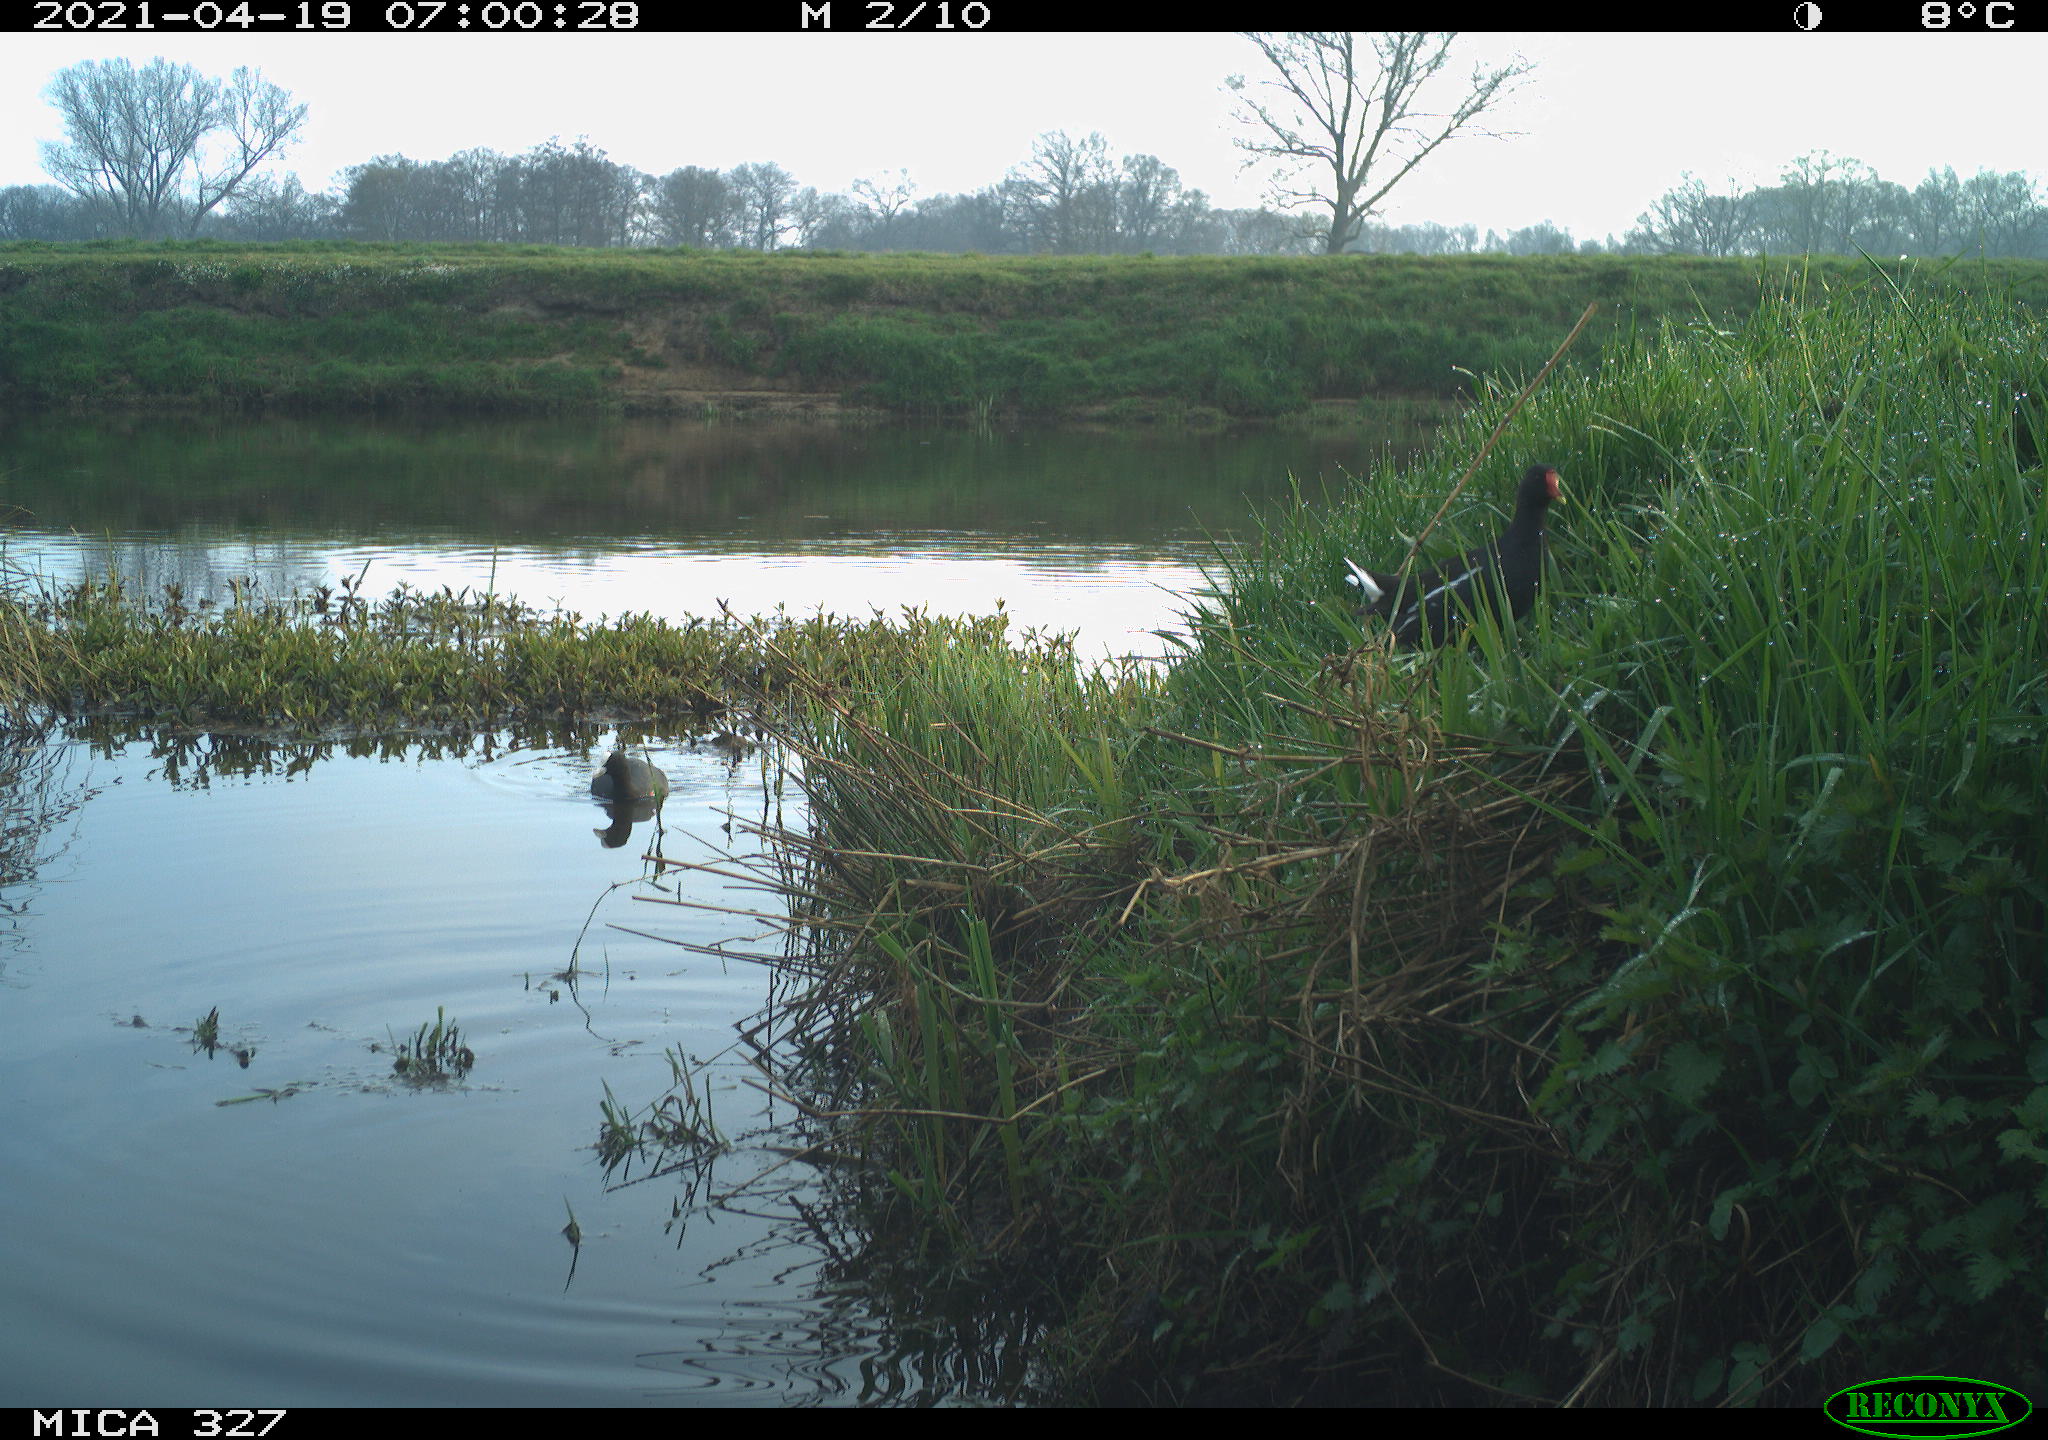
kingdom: Animalia
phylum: Chordata
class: Aves
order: Gruiformes
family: Rallidae
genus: Gallinula
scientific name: Gallinula chloropus
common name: Common moorhen
